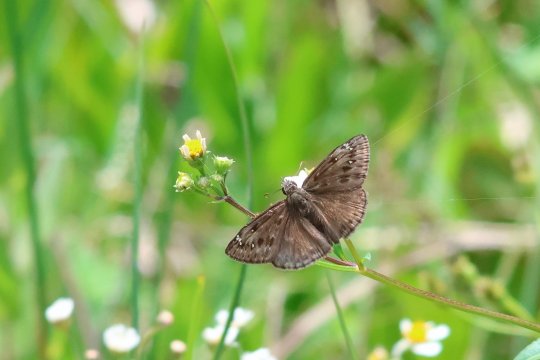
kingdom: Animalia
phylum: Arthropoda
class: Insecta
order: Lepidoptera
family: Hesperiidae
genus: Gesta
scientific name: Gesta
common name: Horace's Duskywing
